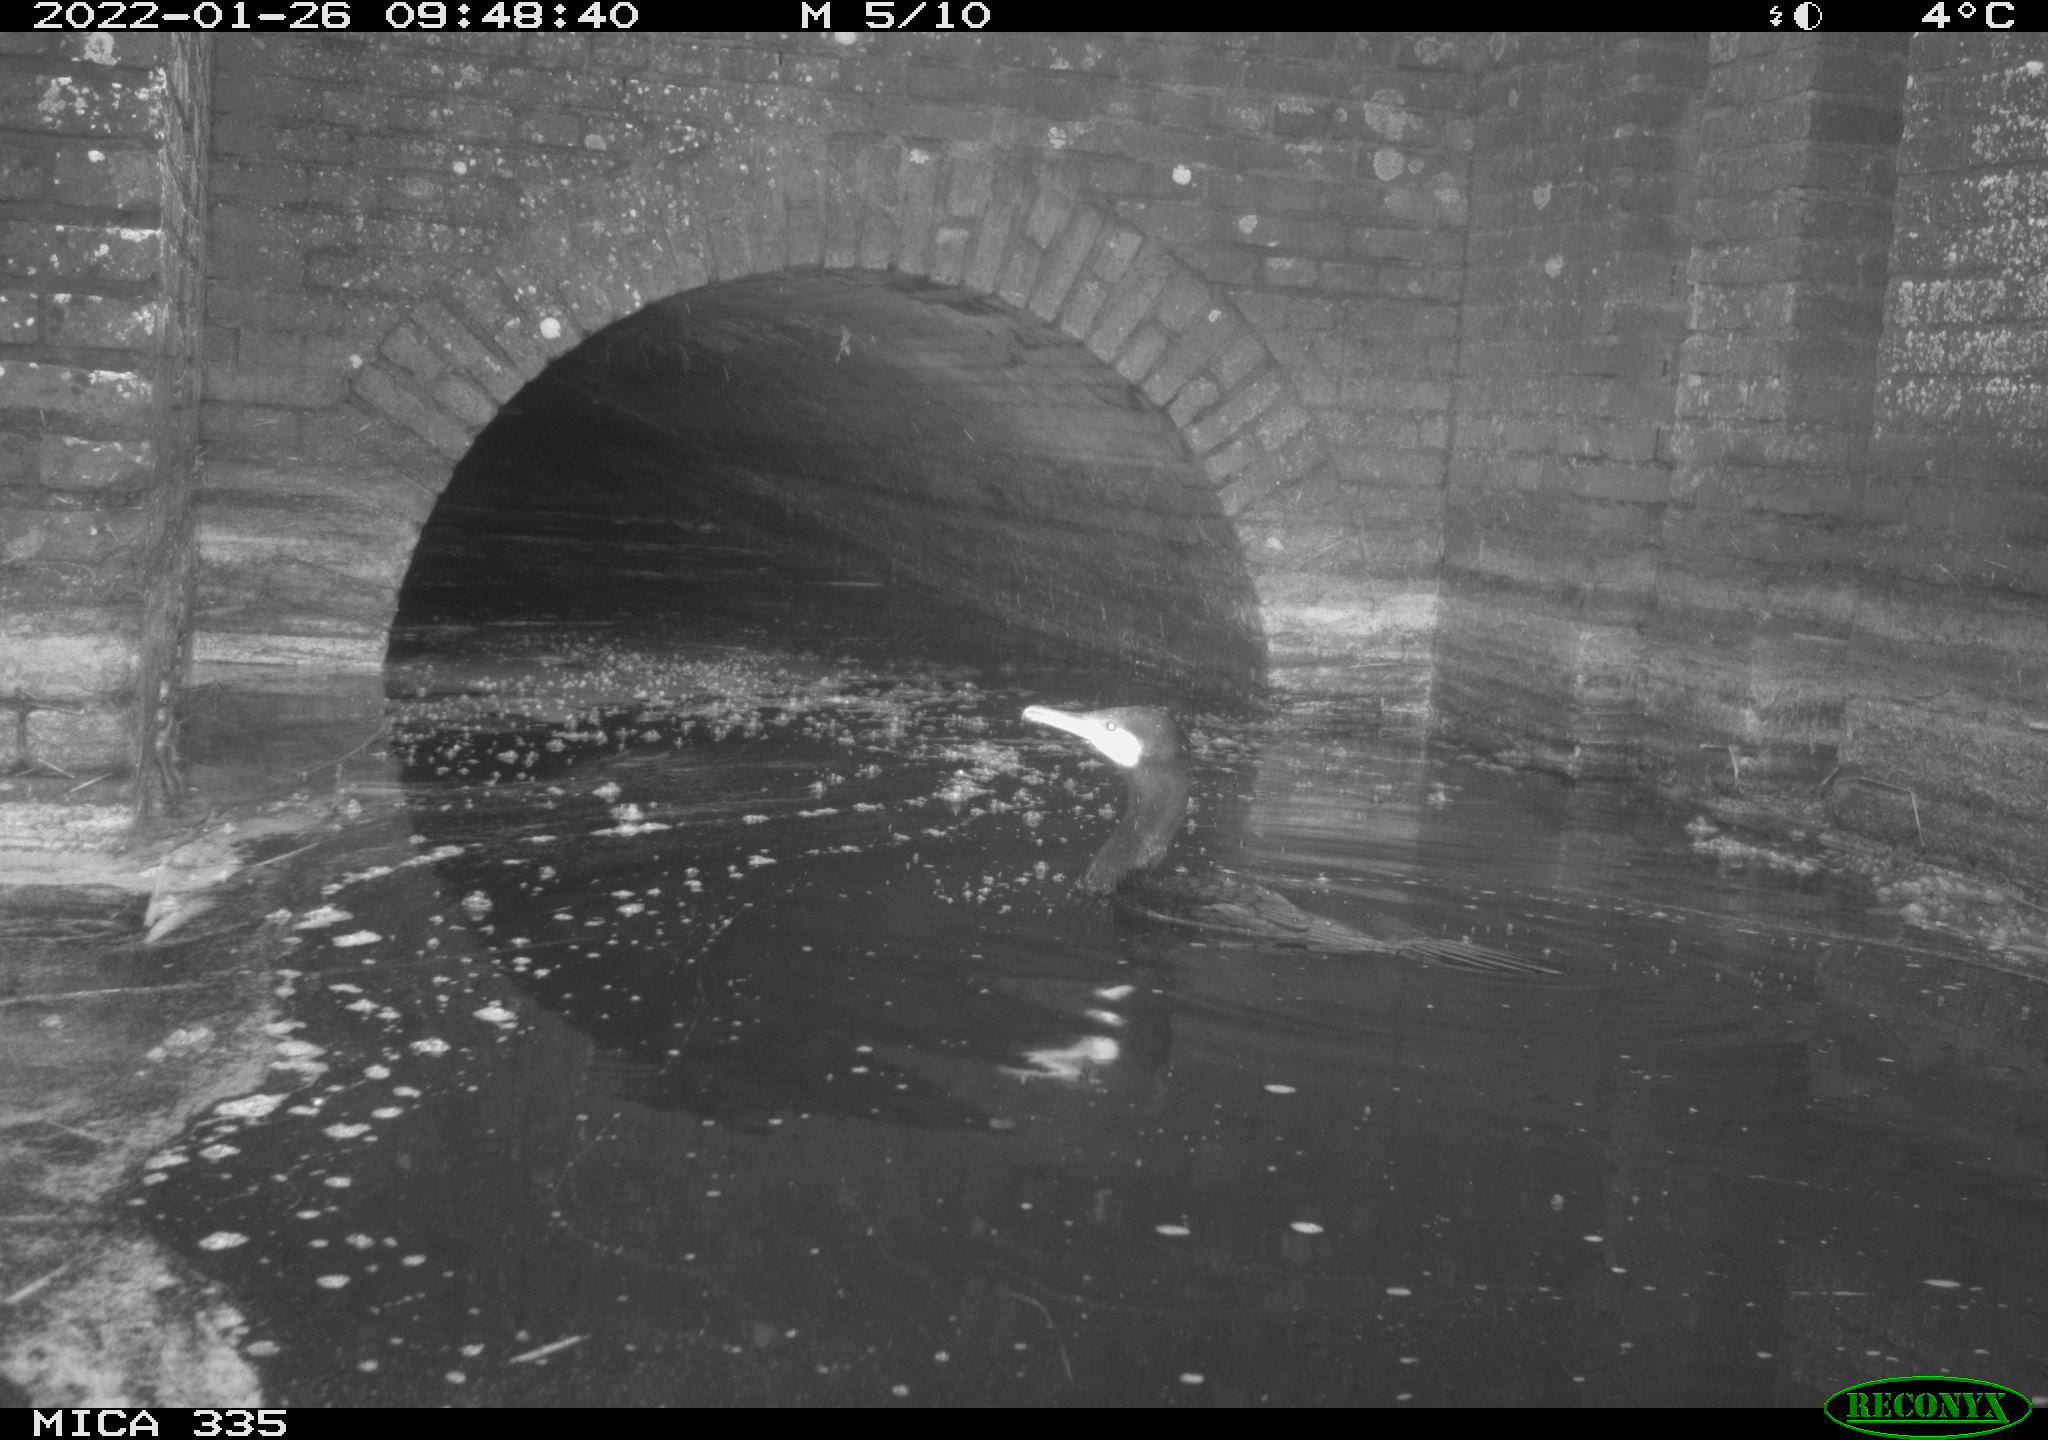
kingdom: Animalia
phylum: Chordata
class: Aves
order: Suliformes
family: Phalacrocoracidae
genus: Phalacrocorax
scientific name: Phalacrocorax carbo
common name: Great cormorant
